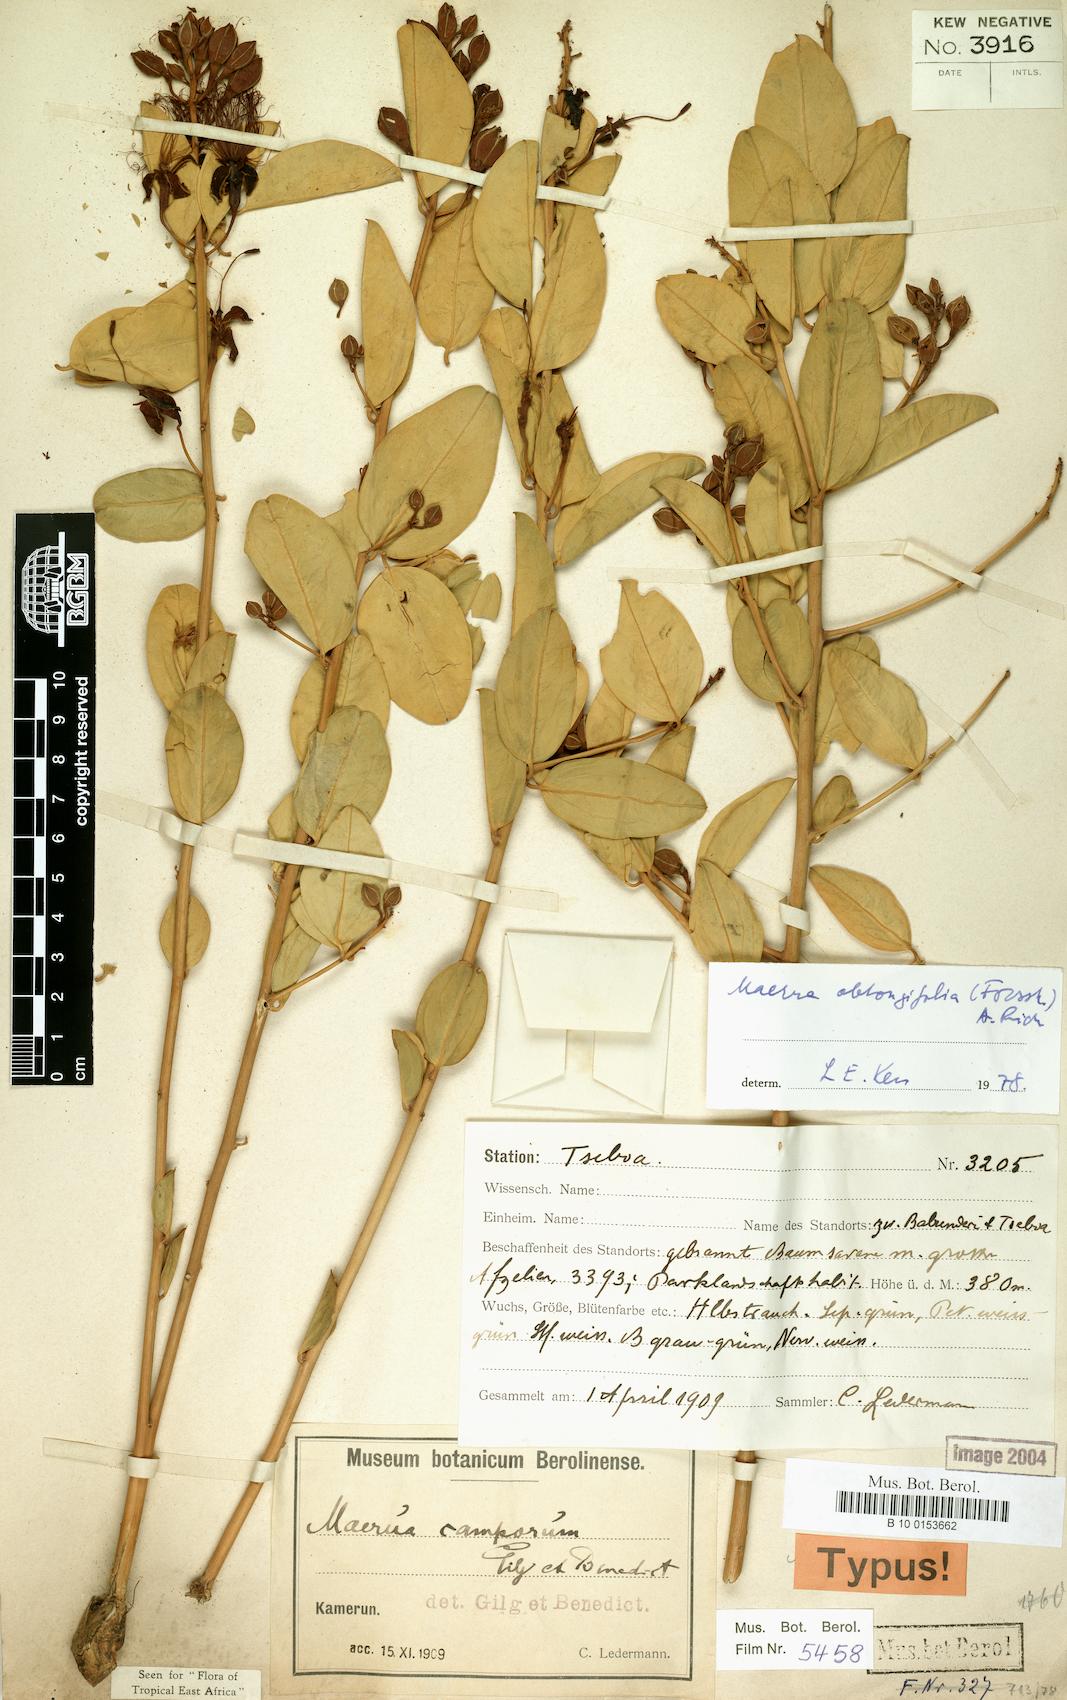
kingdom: Plantae
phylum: Tracheophyta
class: Magnoliopsida
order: Brassicales
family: Capparaceae
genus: Maerua
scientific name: Maerua oblongifolia
